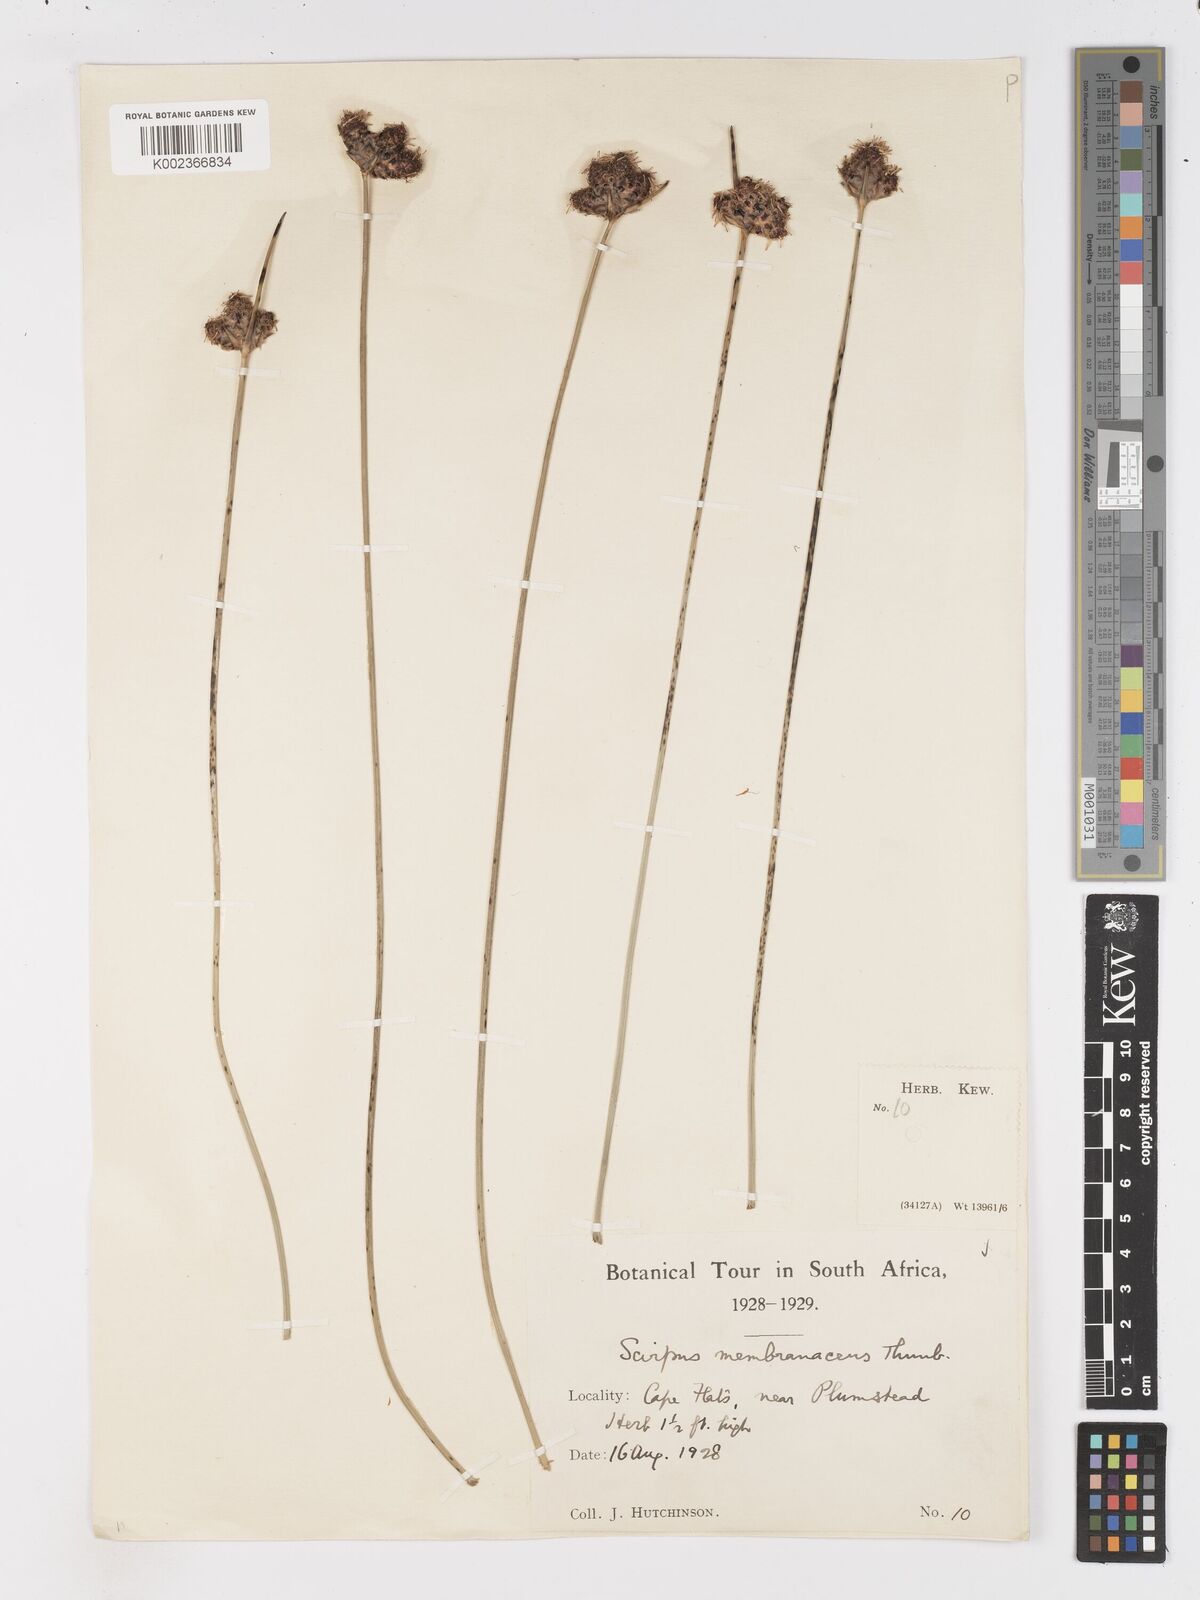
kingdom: Plantae
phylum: Tracheophyta
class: Liliopsida
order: Poales
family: Cyperaceae
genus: Hellmuthia
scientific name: Hellmuthia membranacea
